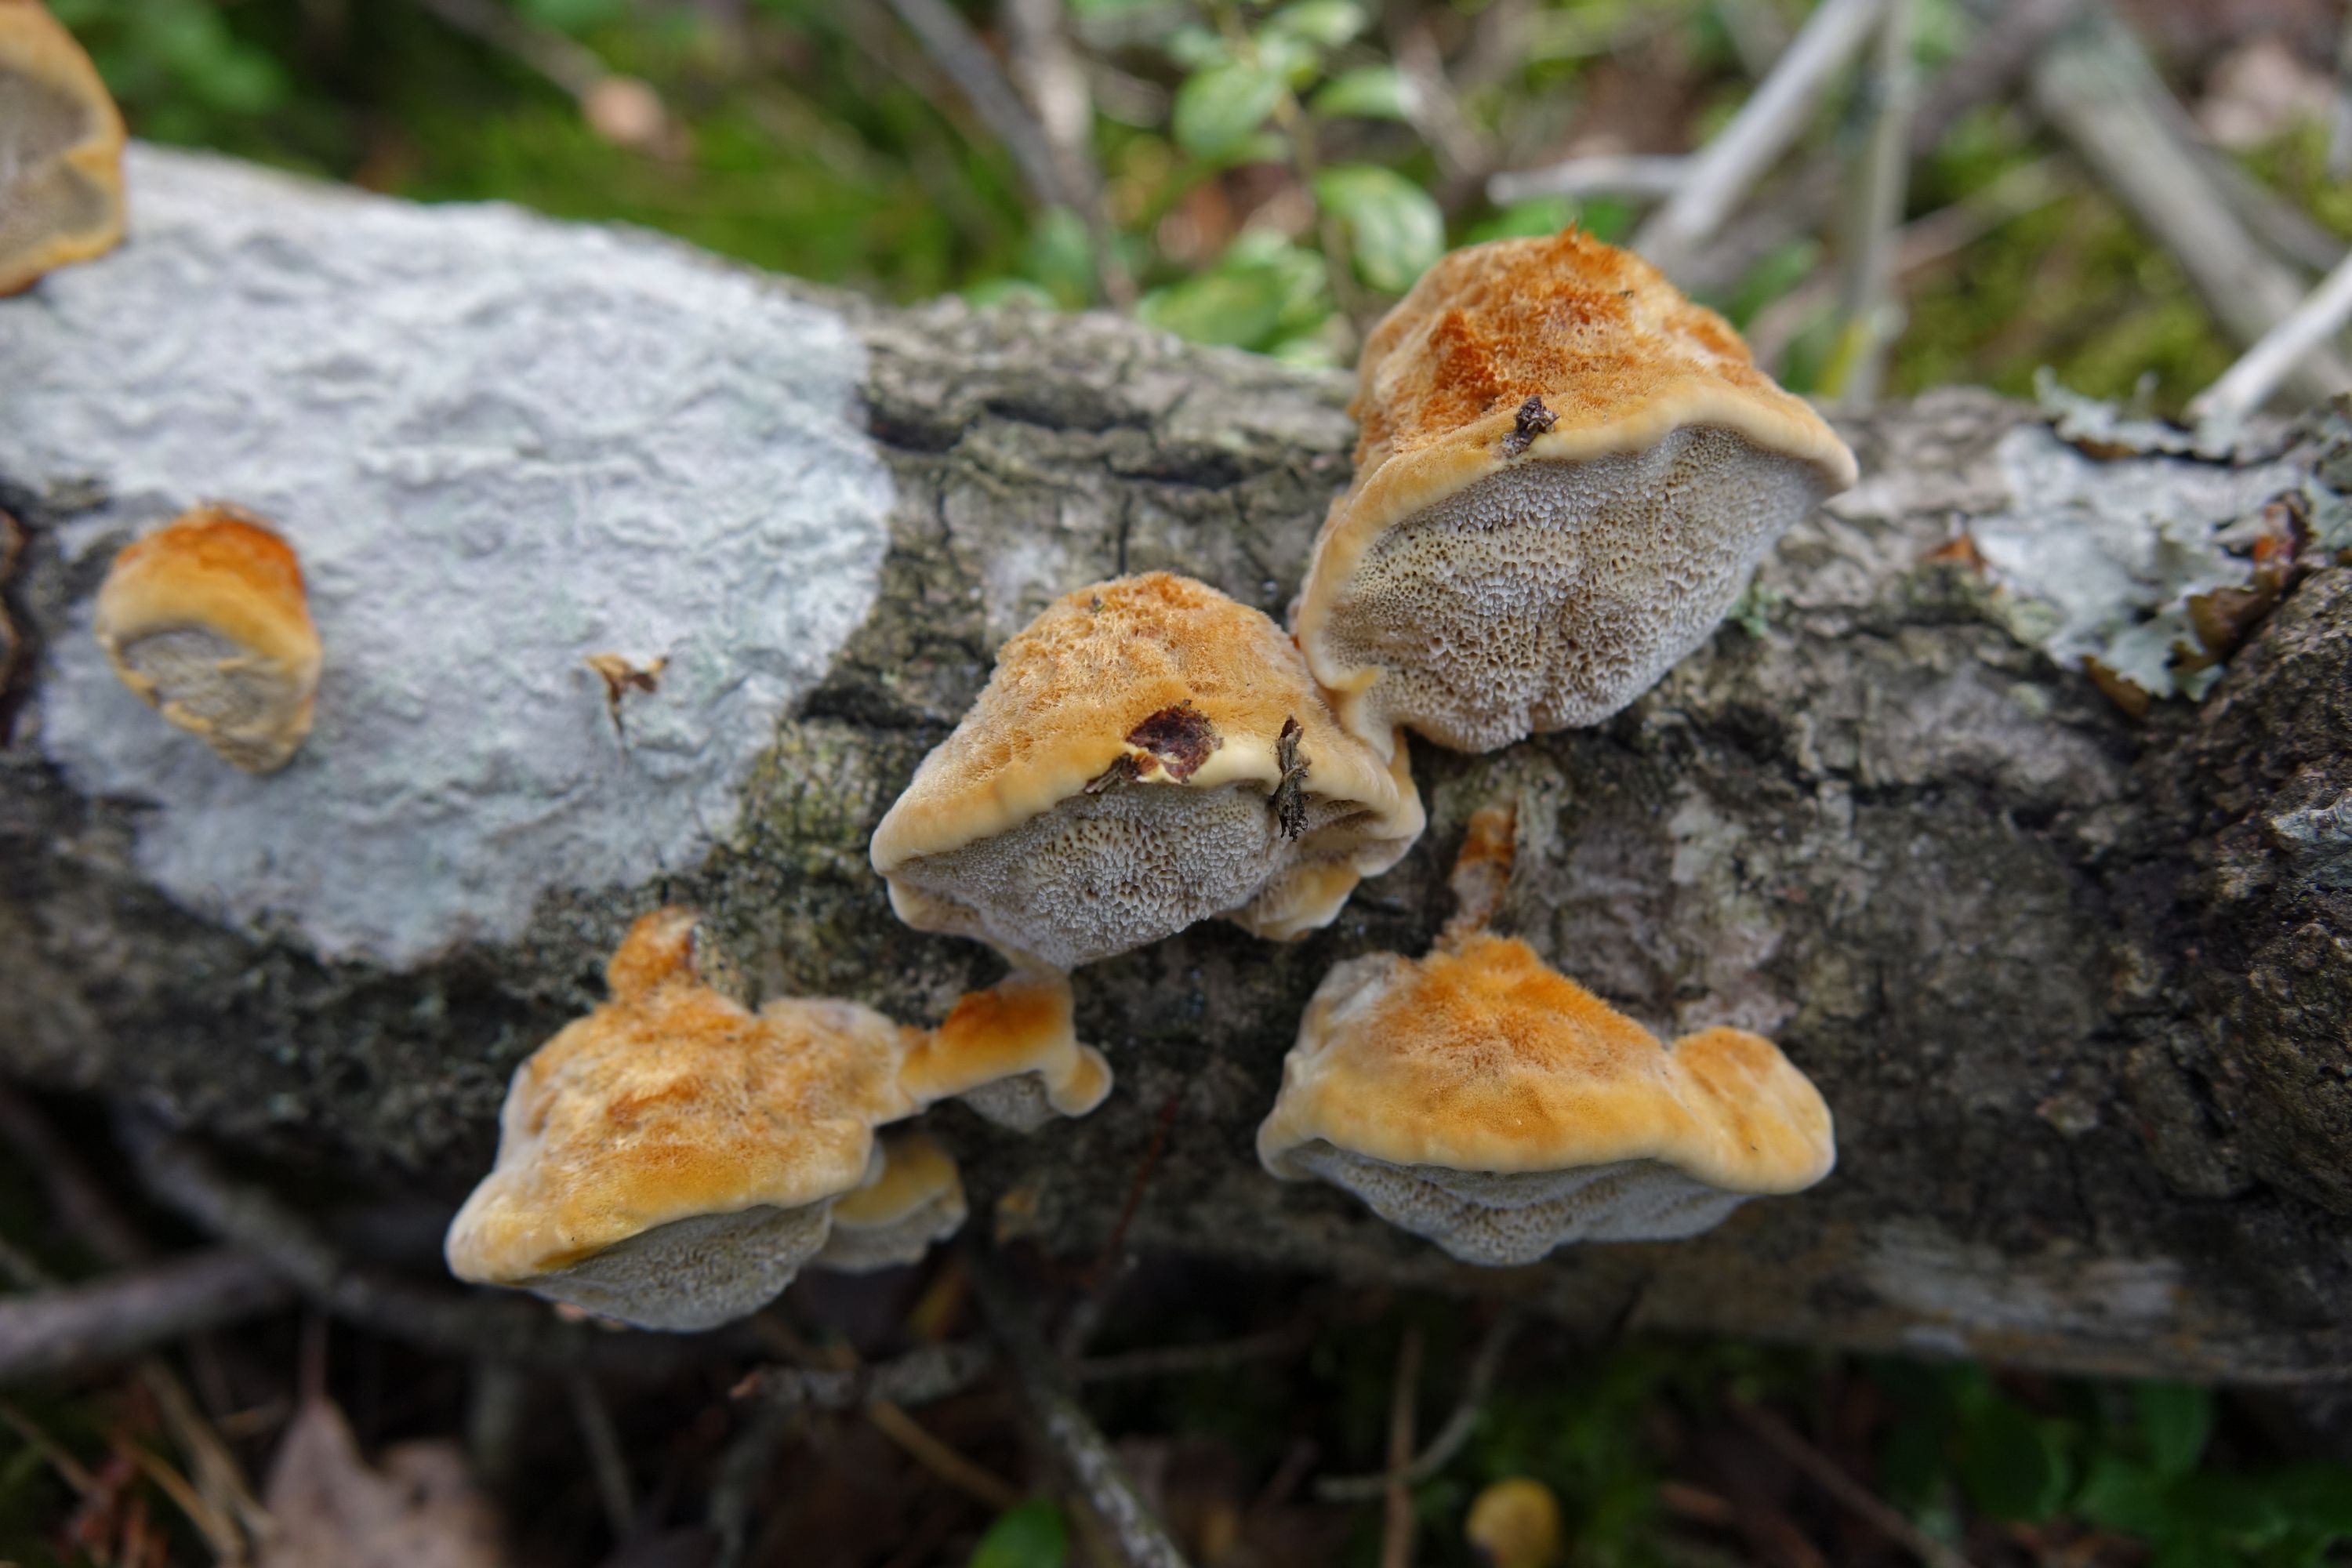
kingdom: Fungi
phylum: Basidiomycota
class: Agaricomycetes
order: Hymenochaetales
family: Hymenochaetaceae
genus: Inocutis
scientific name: Inocutis rheades
